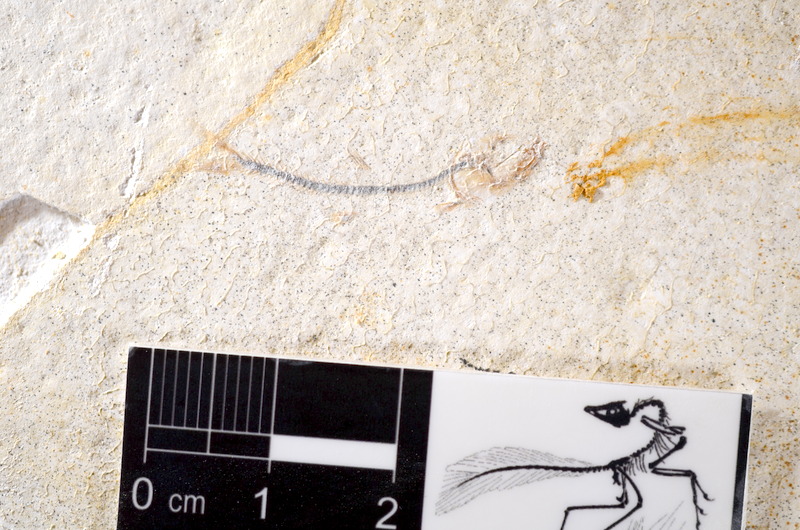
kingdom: Animalia
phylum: Chordata
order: Salmoniformes
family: Orthogonikleithridae
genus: Orthogonikleithrus
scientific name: Orthogonikleithrus hoelli
